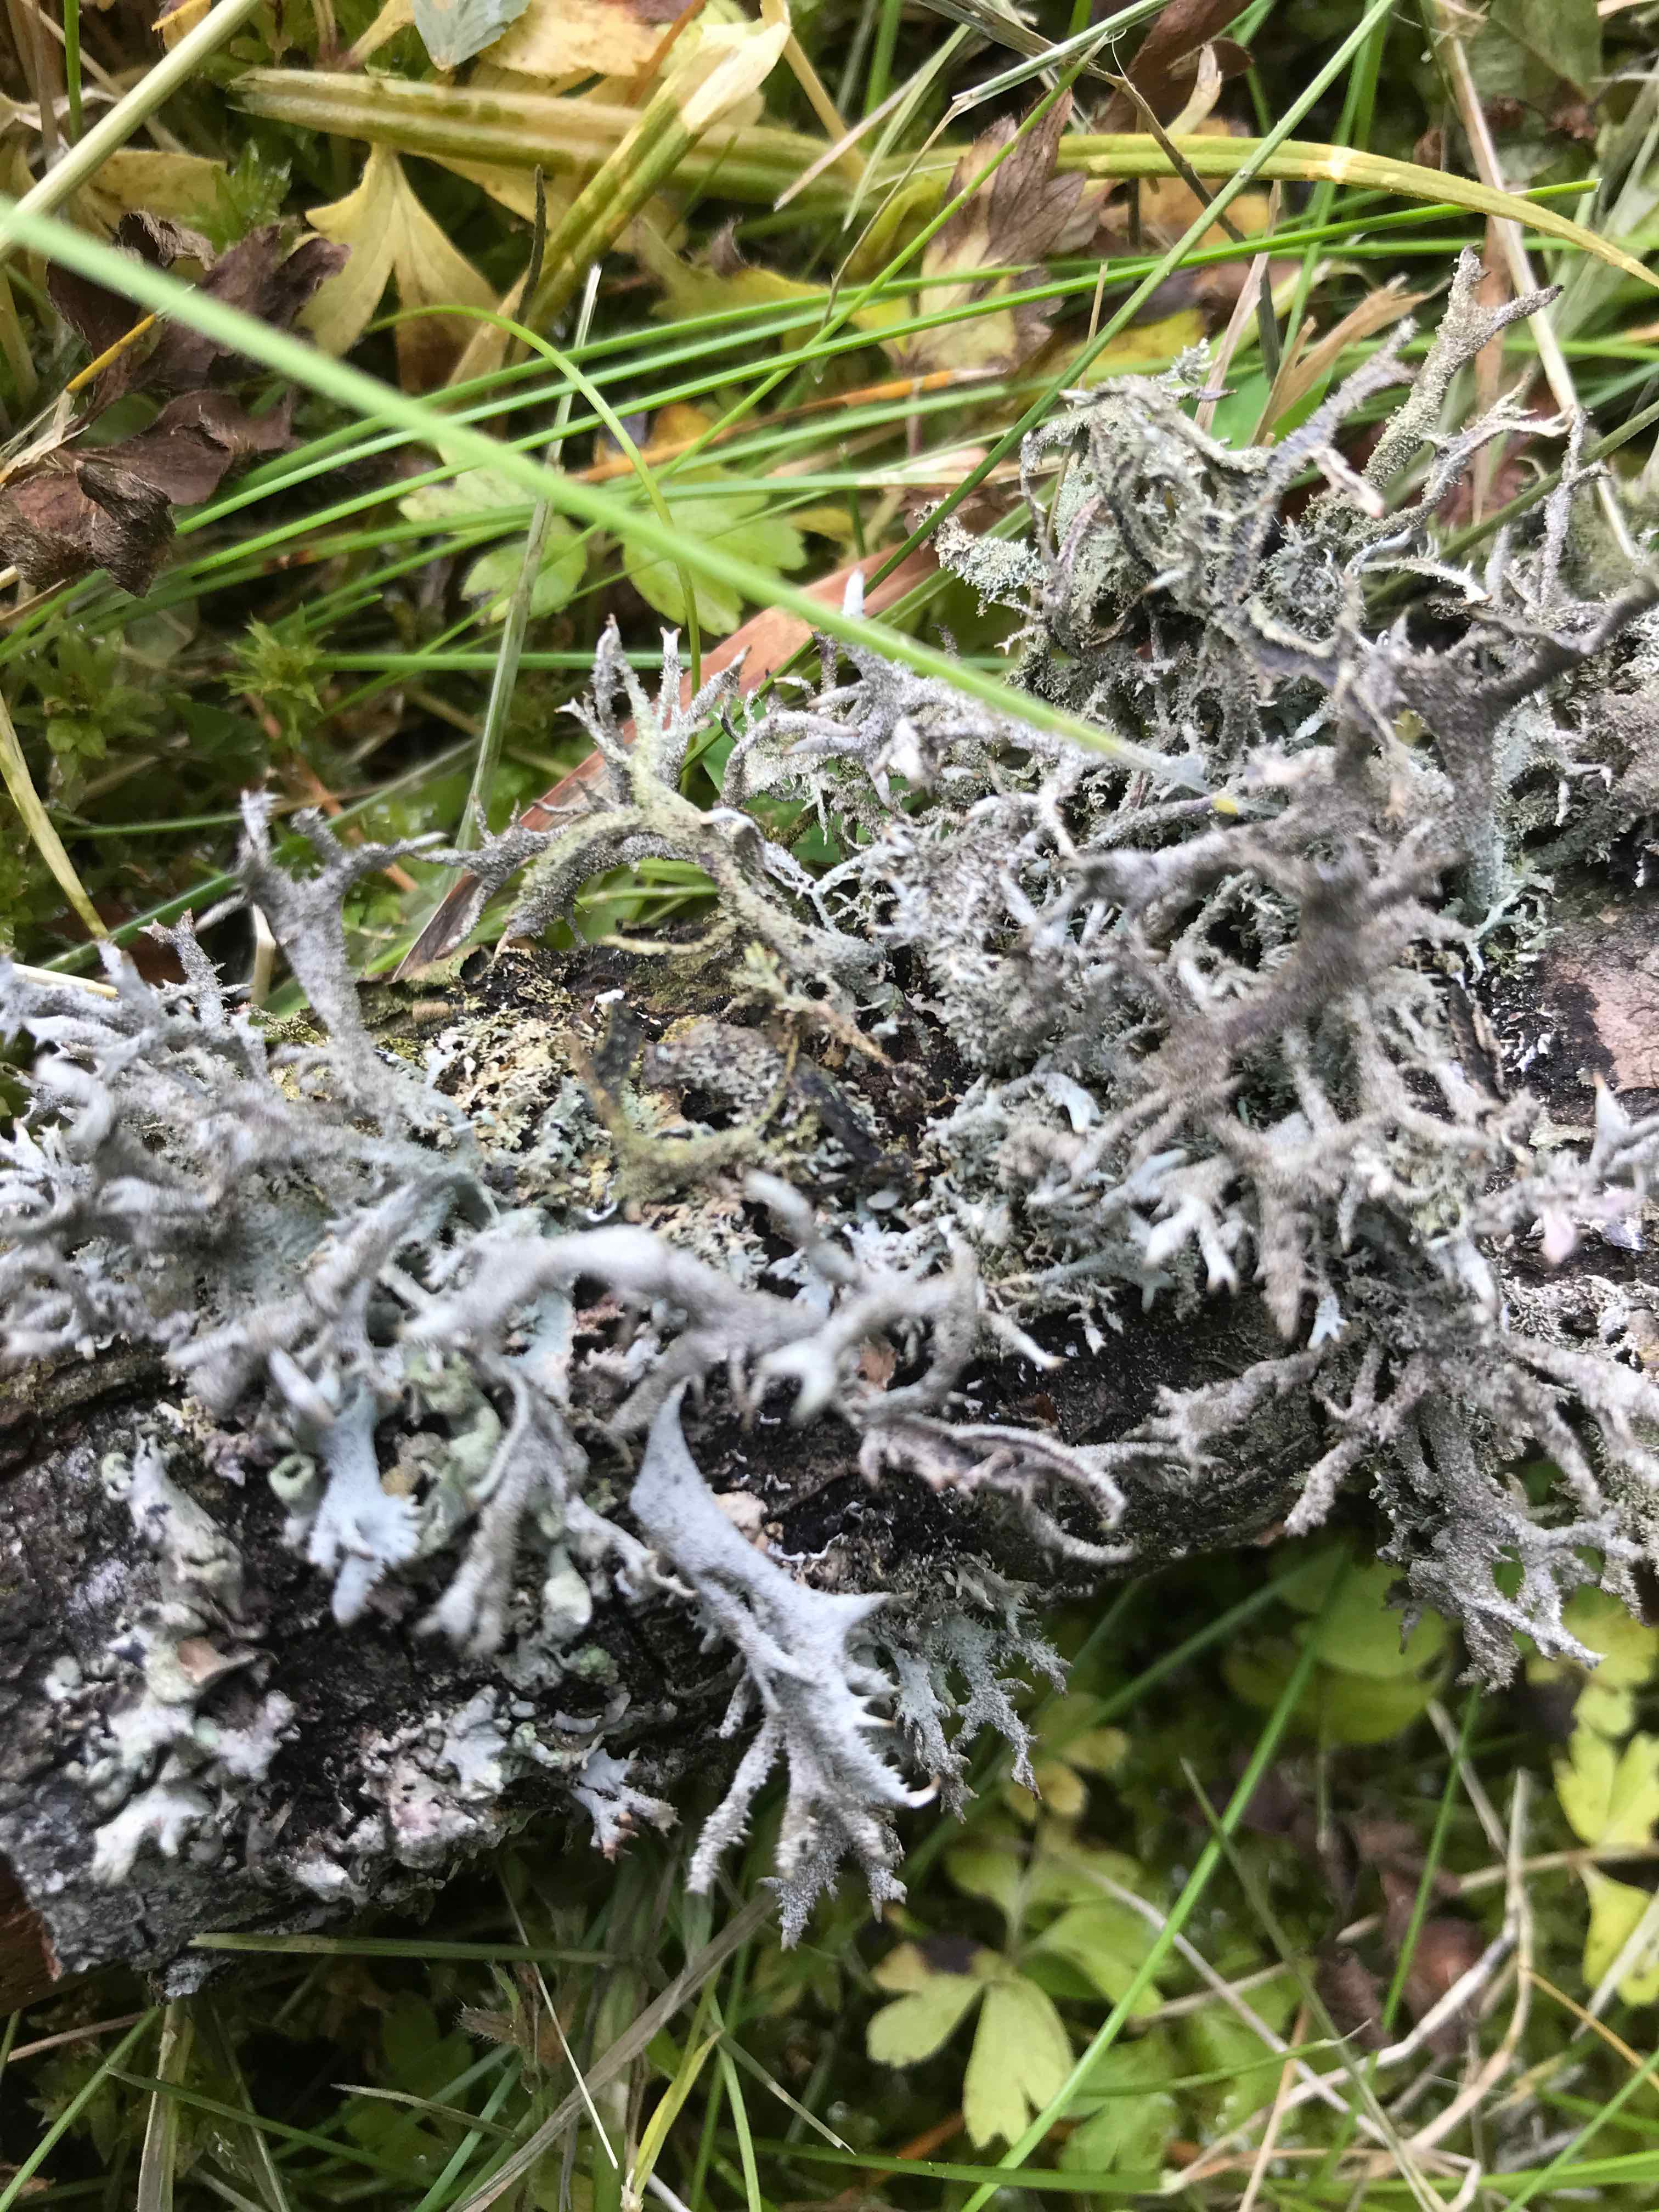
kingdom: Fungi
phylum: Ascomycota
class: Lecanoromycetes
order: Lecanorales
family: Parmeliaceae
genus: Pseudevernia
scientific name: Pseudevernia furfuracea
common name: grå fyrrelav
